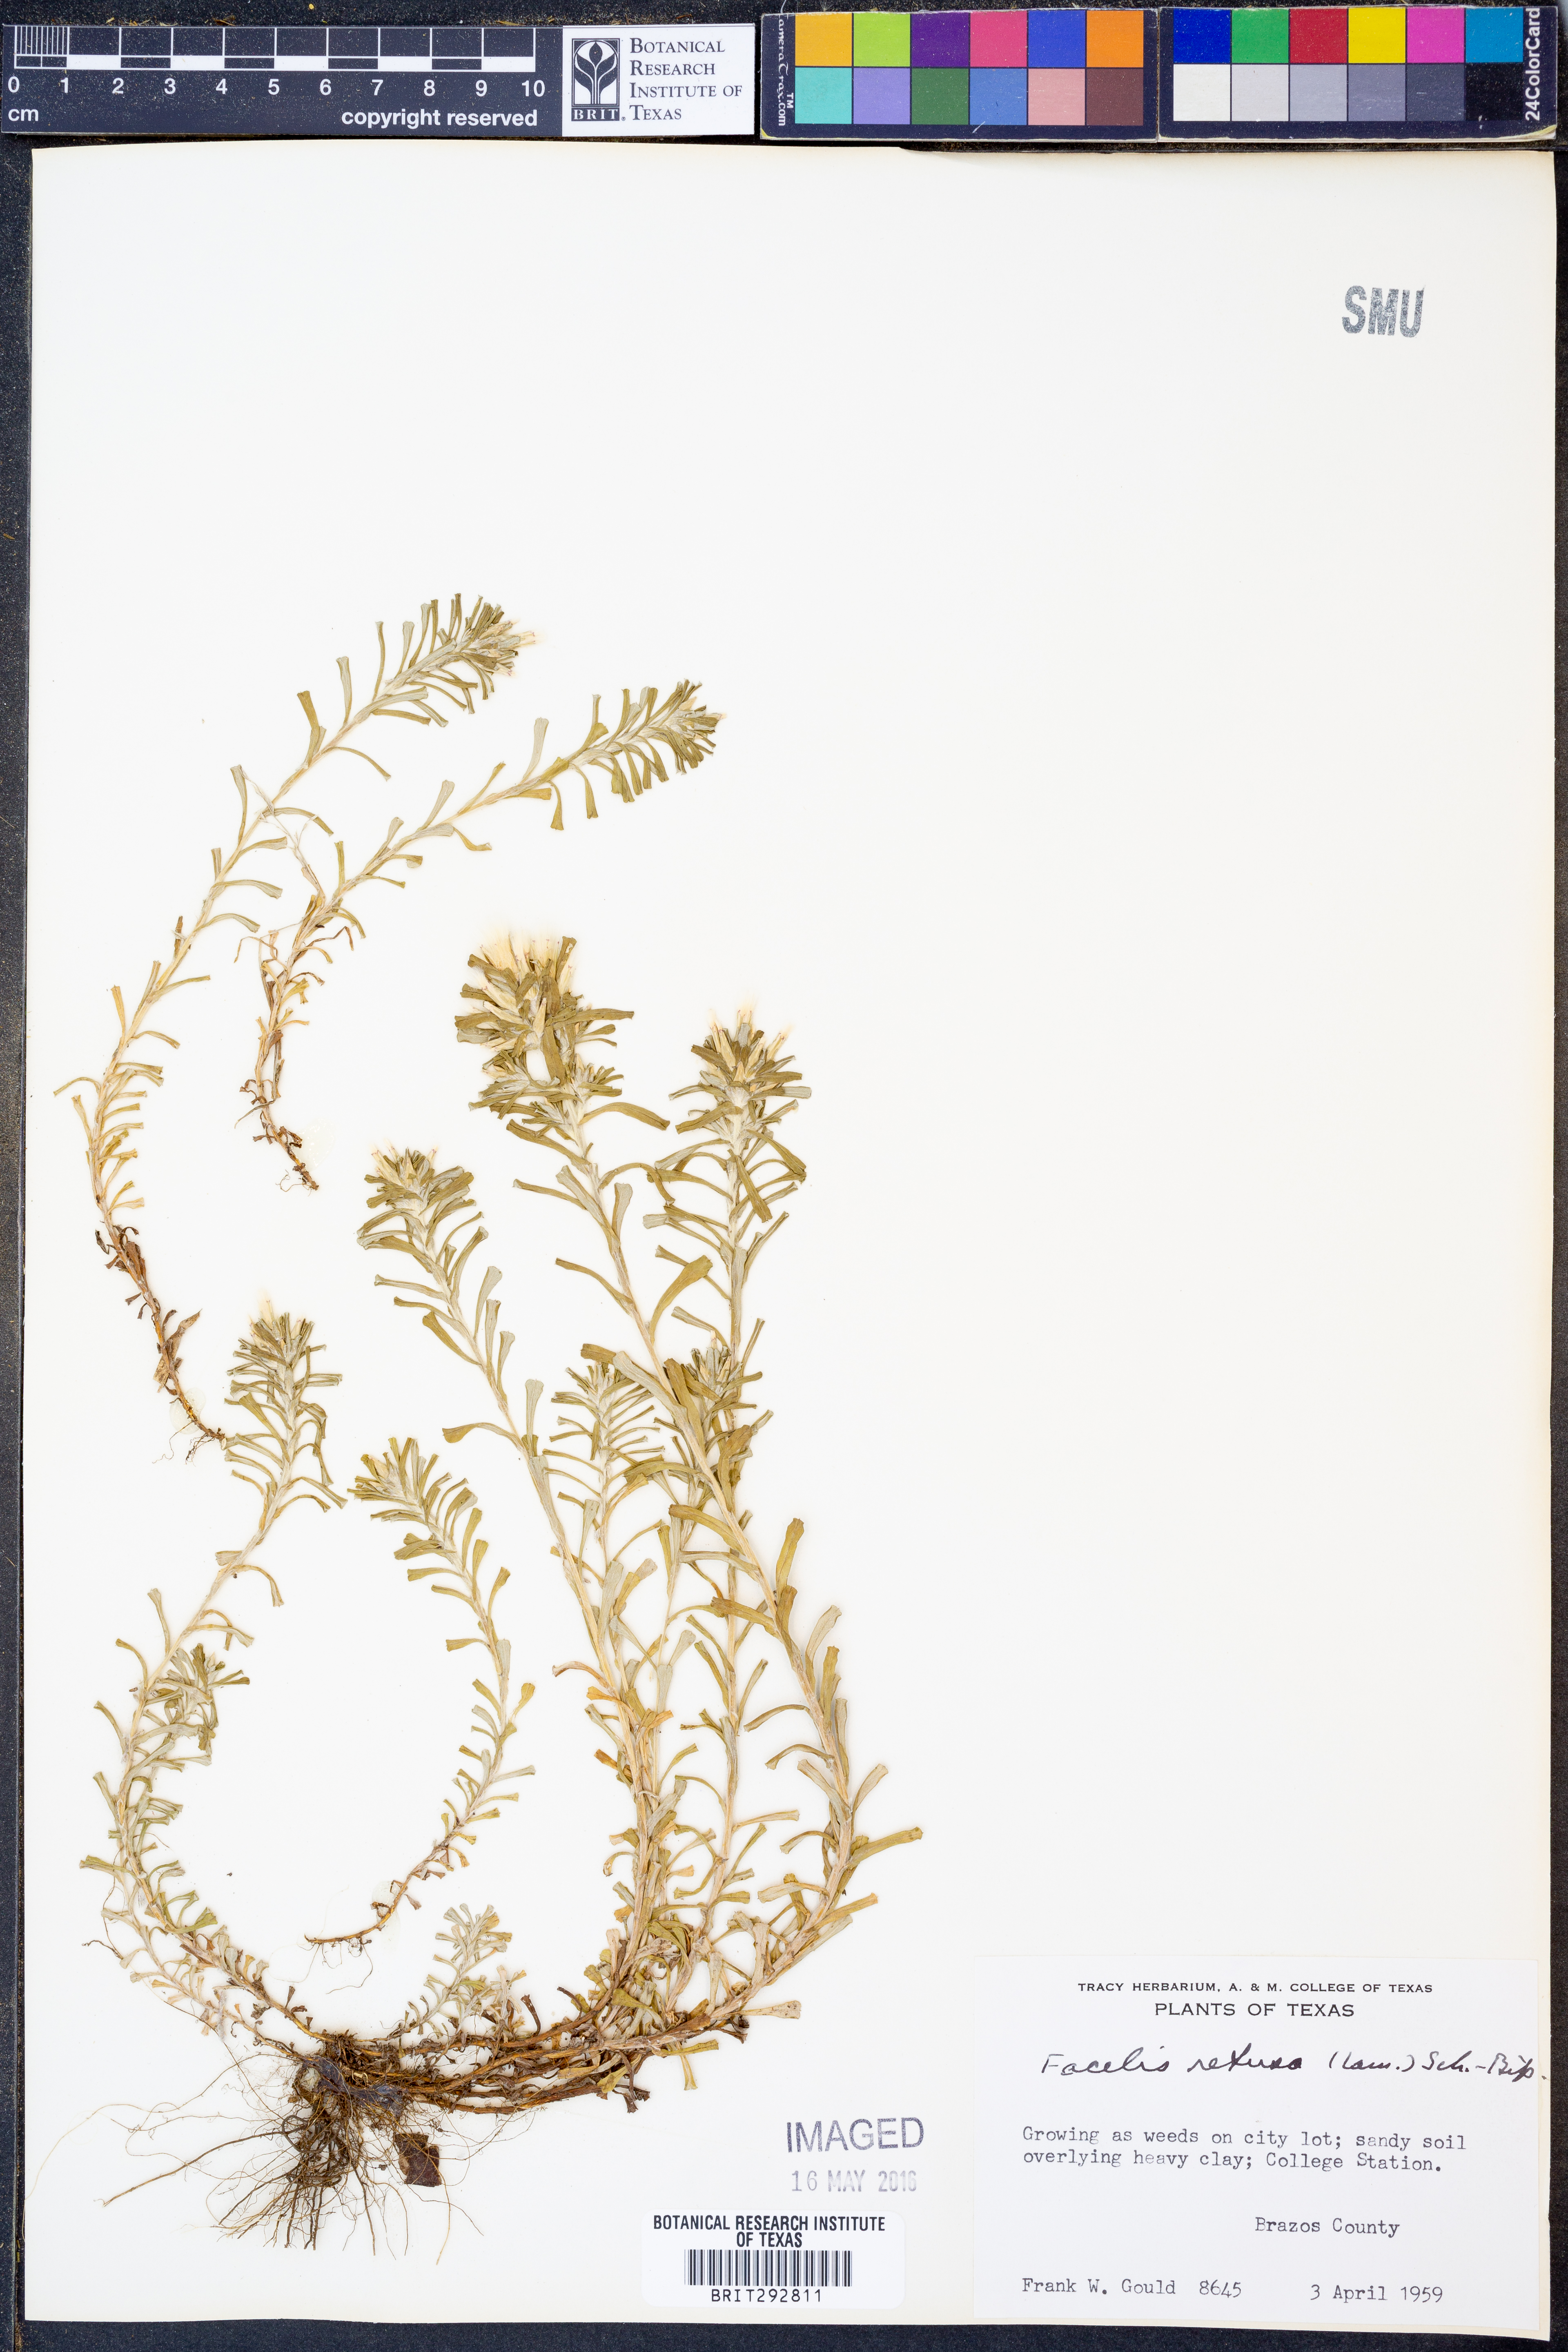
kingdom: Plantae
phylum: Tracheophyta
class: Magnoliopsida
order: Asterales
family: Asteraceae
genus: Facelis
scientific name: Facelis retusa
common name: Annual trampweed
